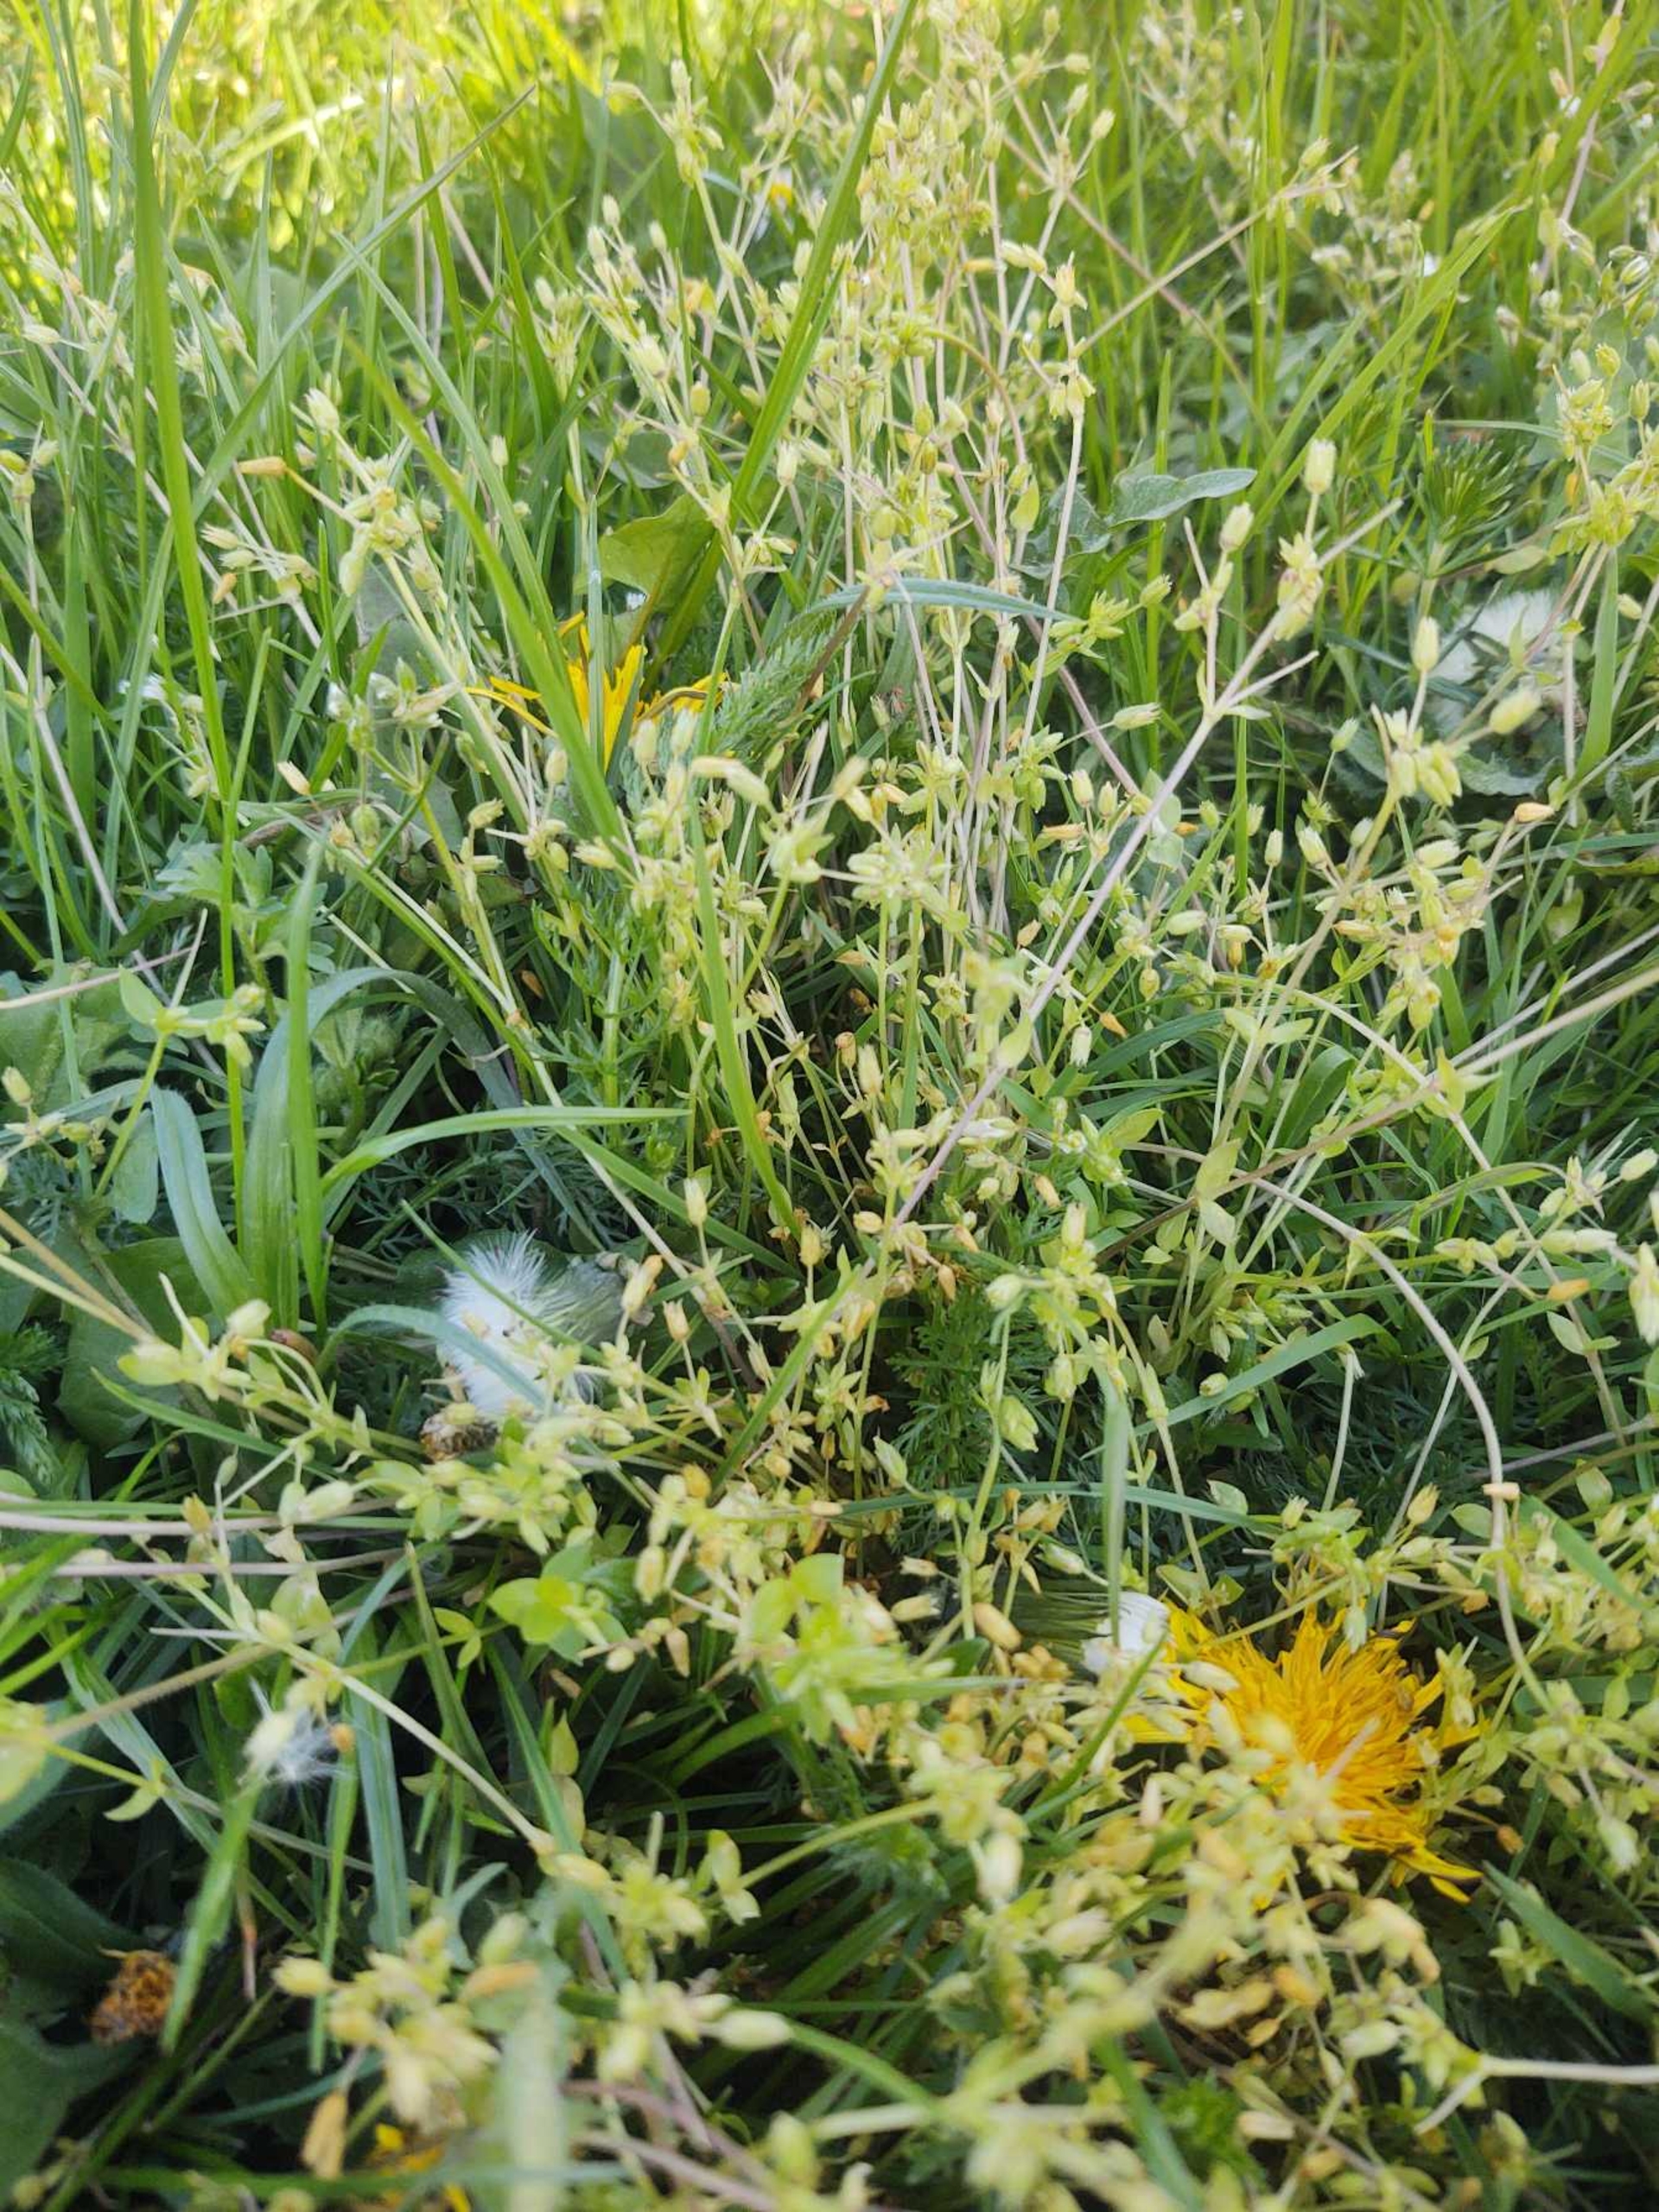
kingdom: Plantae
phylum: Tracheophyta
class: Magnoliopsida
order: Caryophyllales
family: Caryophyllaceae
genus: Stellaria
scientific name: Stellaria apetala
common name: Bleg fuglegræs
